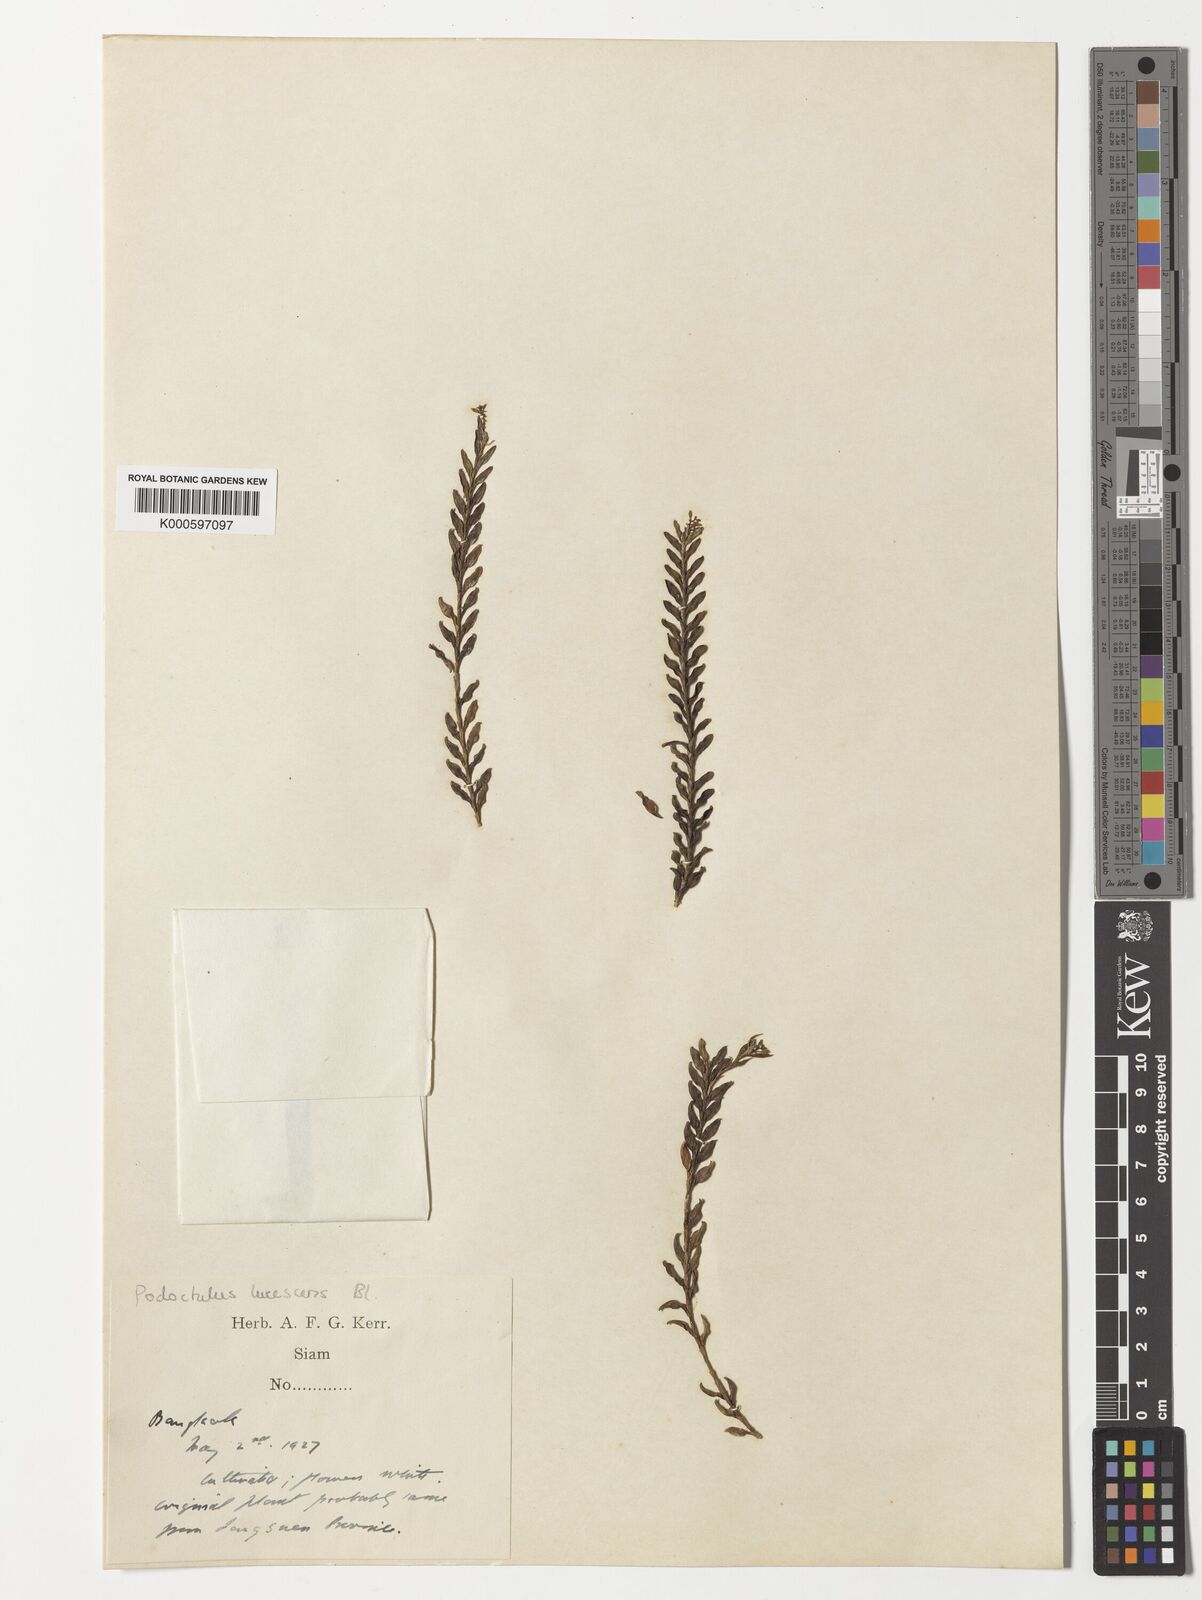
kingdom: Plantae
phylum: Tracheophyta
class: Liliopsida
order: Asparagales
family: Orchidaceae
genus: Podochilus
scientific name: Podochilus lucescens
